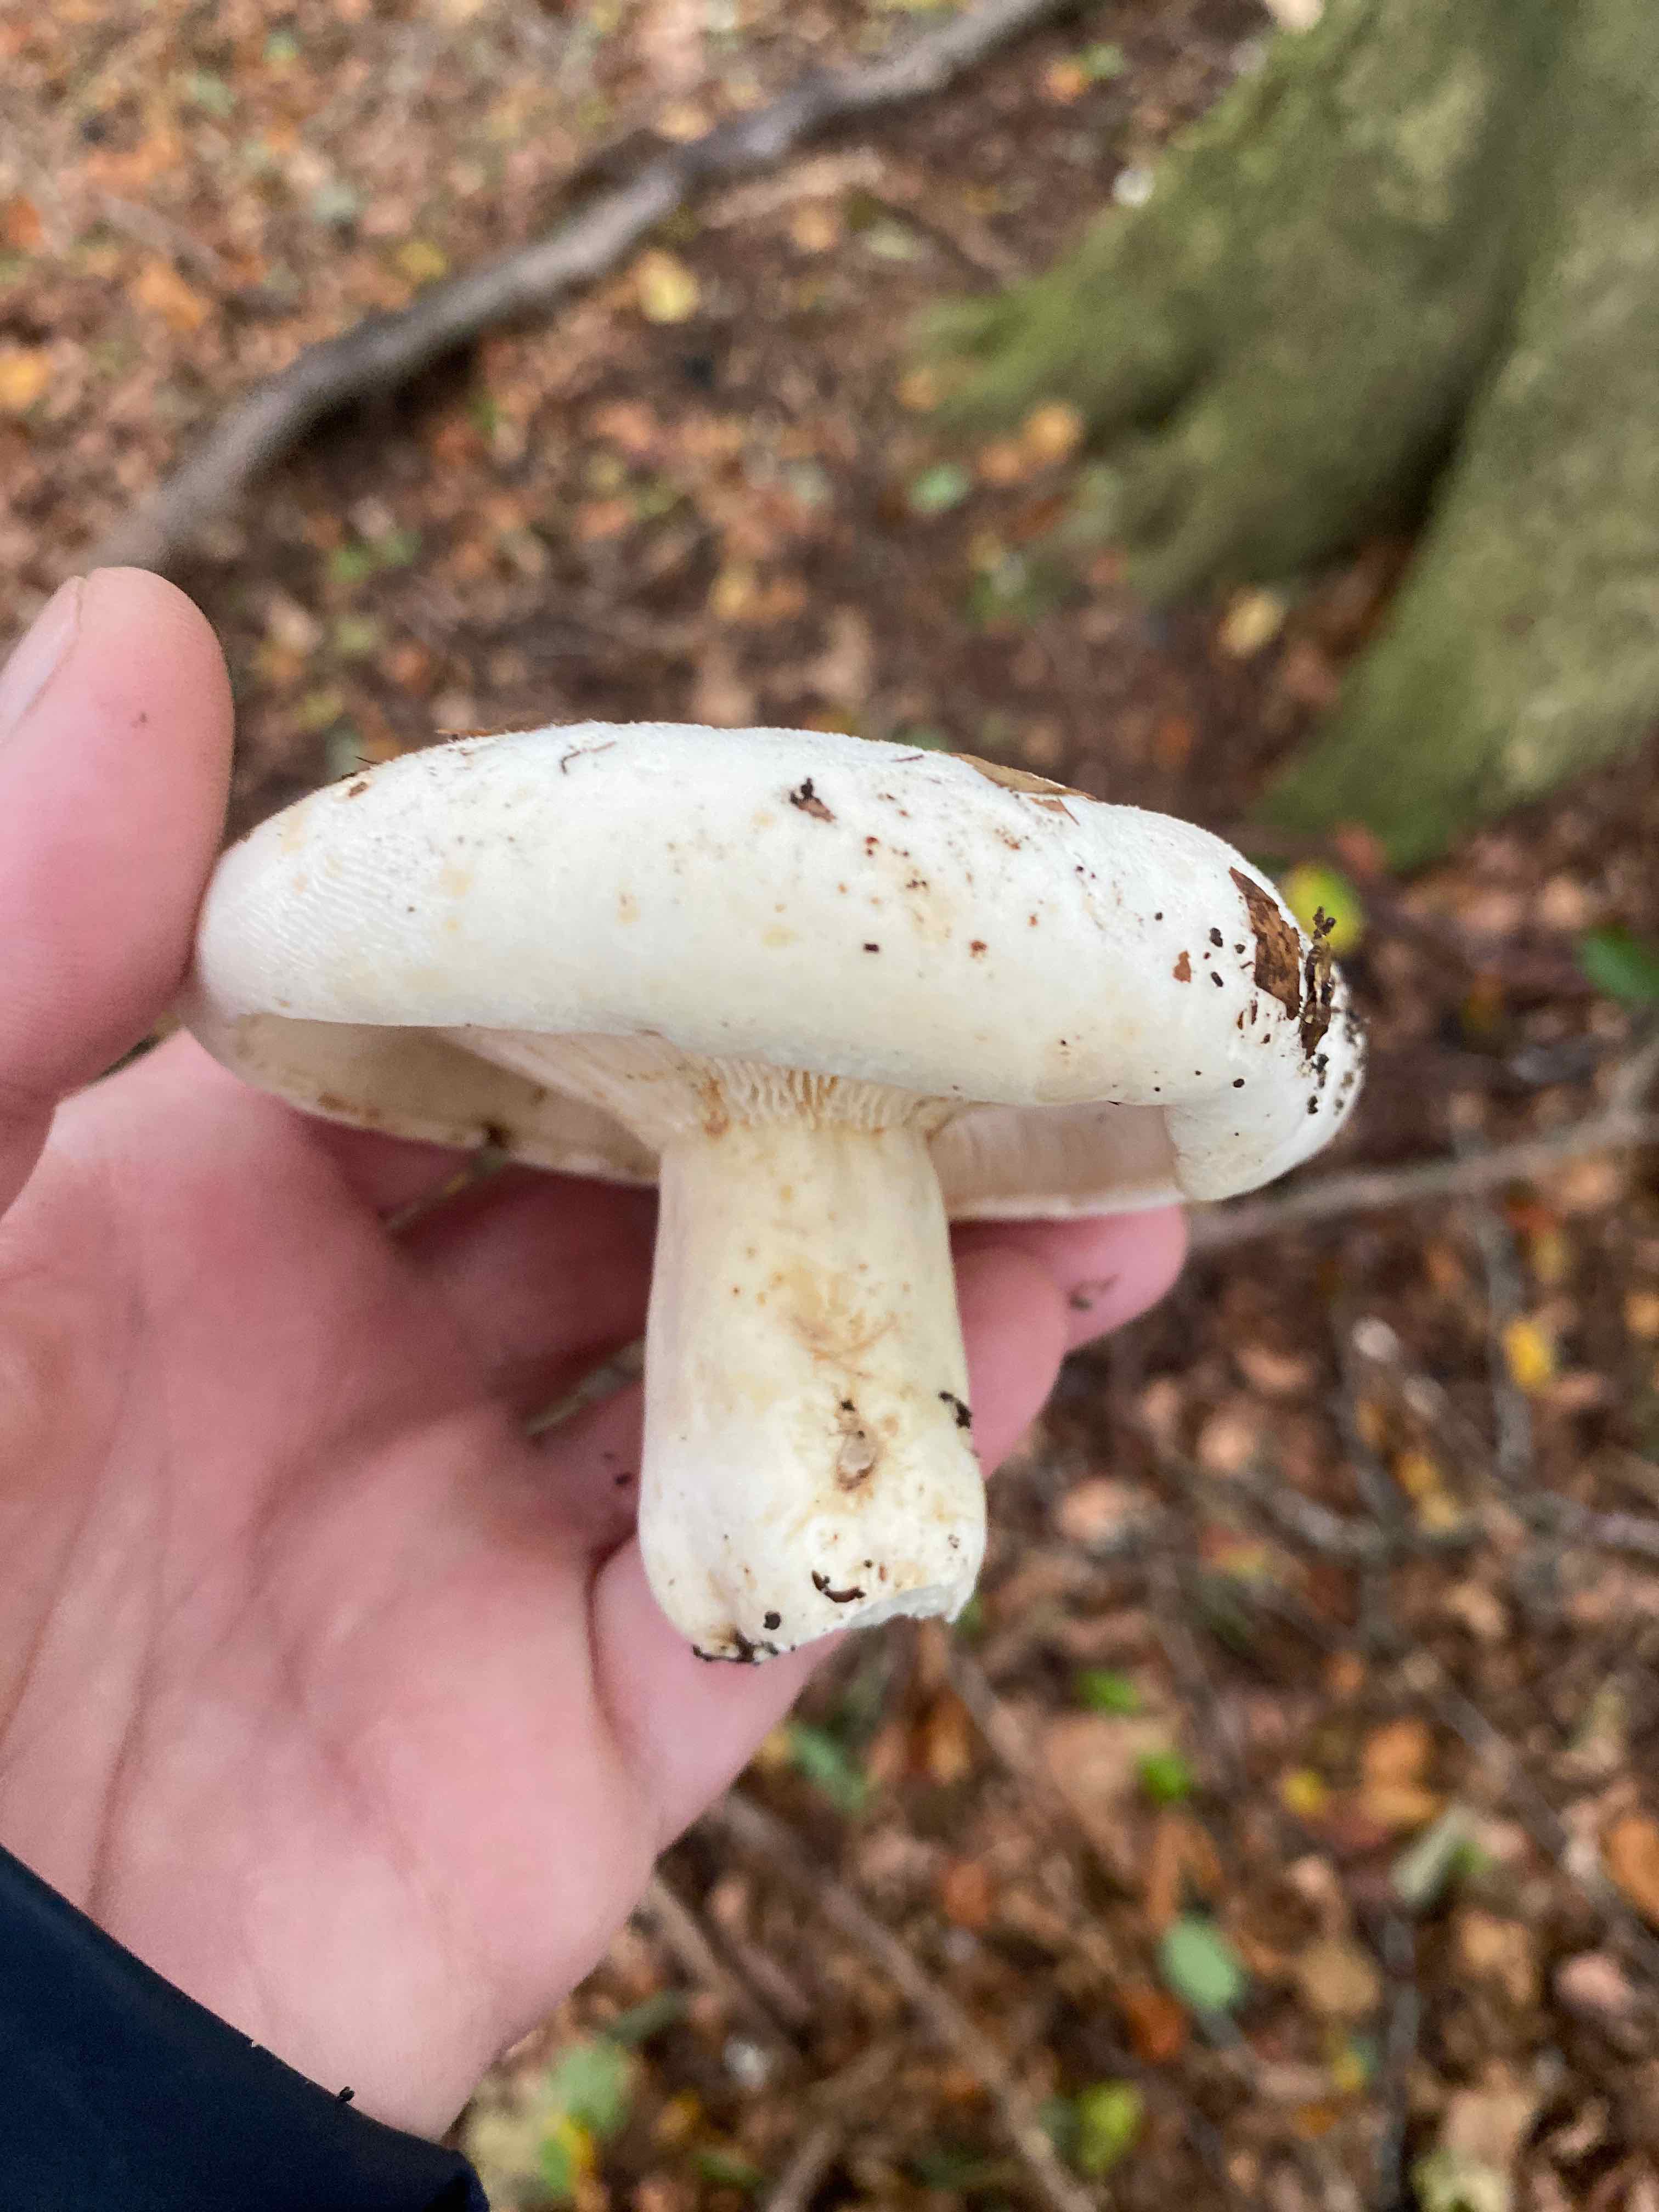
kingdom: Fungi
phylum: Basidiomycota
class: Agaricomycetes
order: Russulales
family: Russulaceae
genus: Lactifluus
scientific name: Lactifluus
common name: mælkehat
